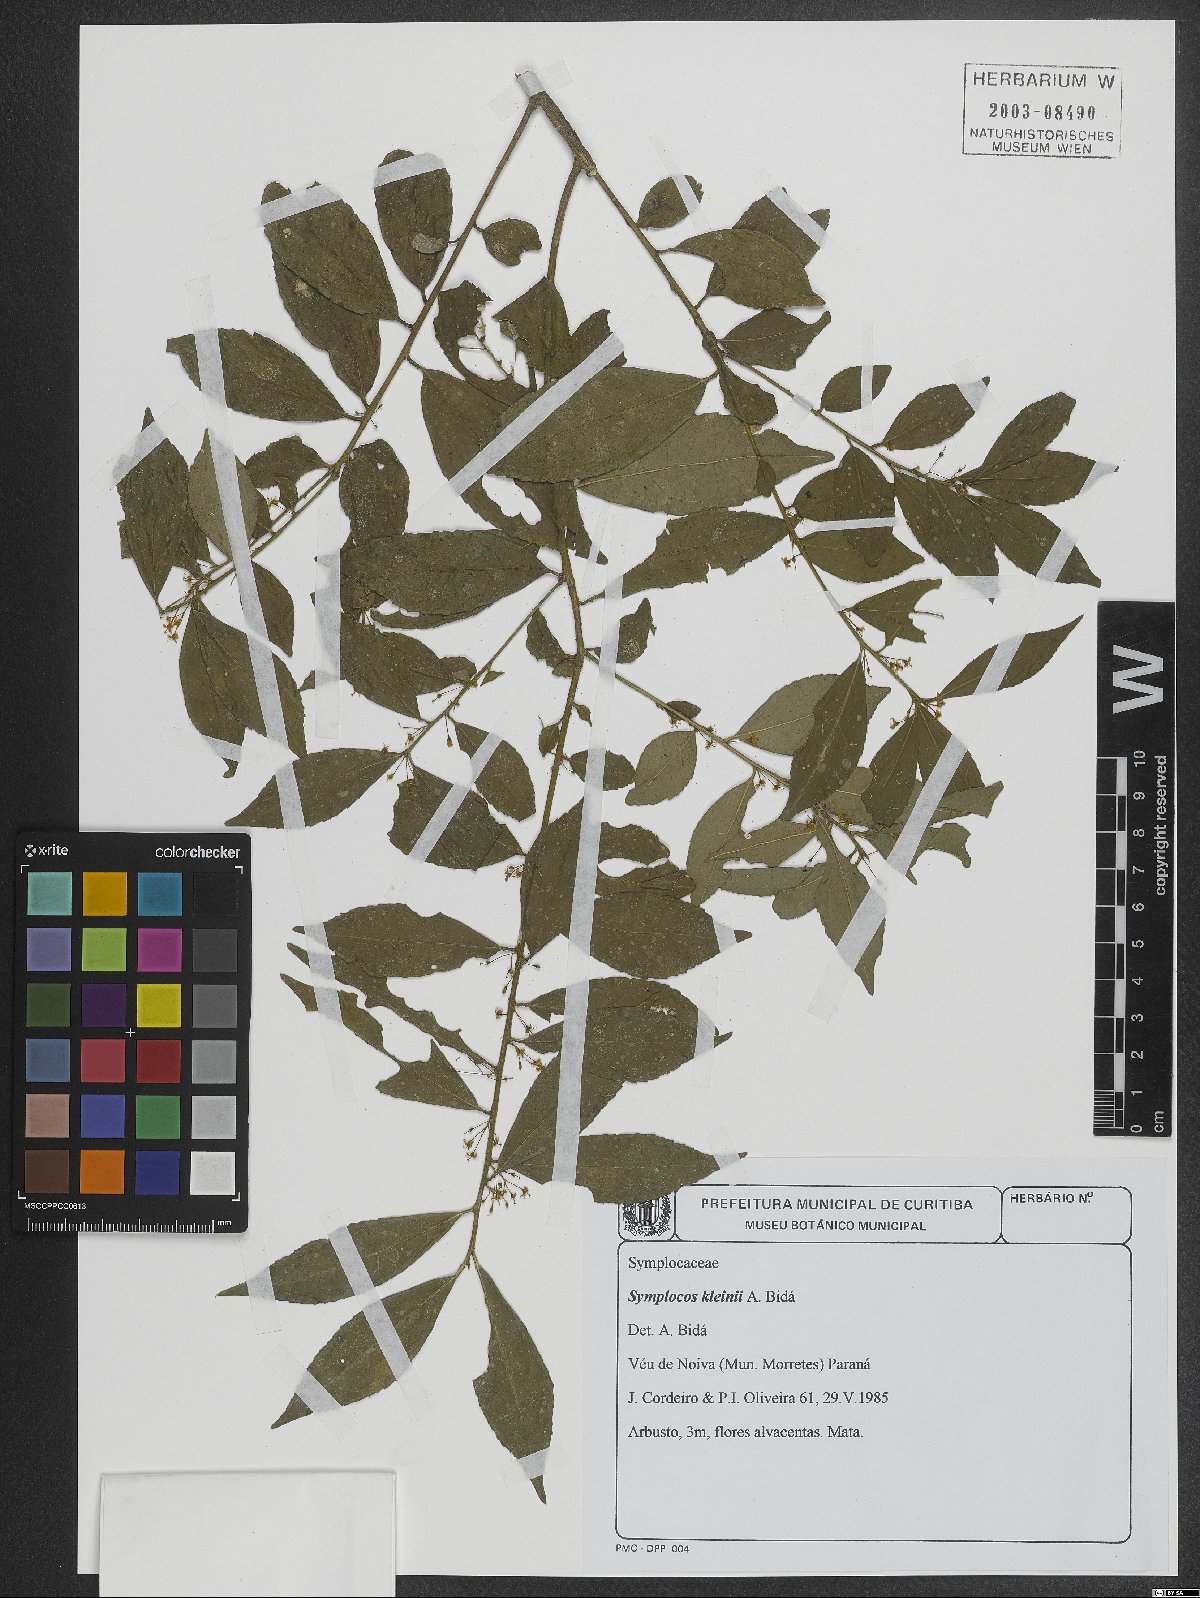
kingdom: Plantae
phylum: Tracheophyta
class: Magnoliopsida
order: Ericales
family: Symplocaceae
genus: Symplocos
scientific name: Symplocos kleinii
